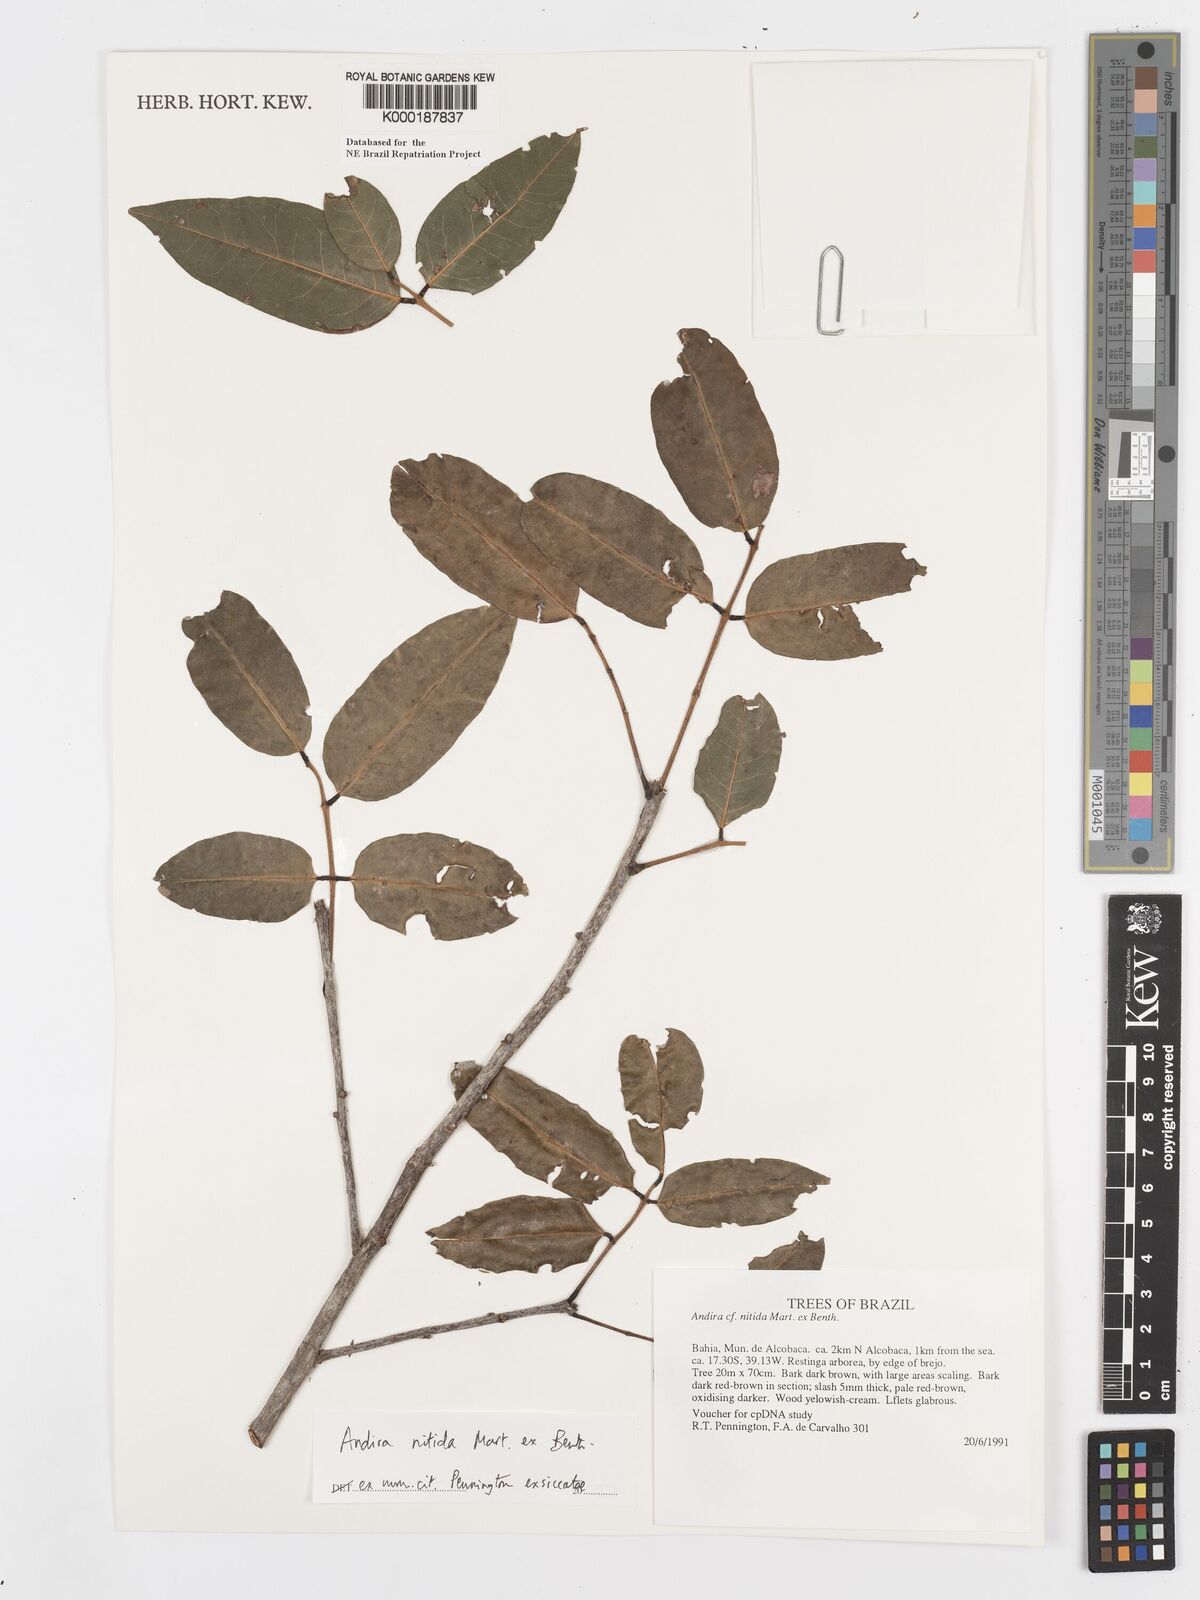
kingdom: Plantae
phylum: Tracheophyta
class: Magnoliopsida
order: Fabales
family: Fabaceae
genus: Andira
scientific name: Andira nitida
